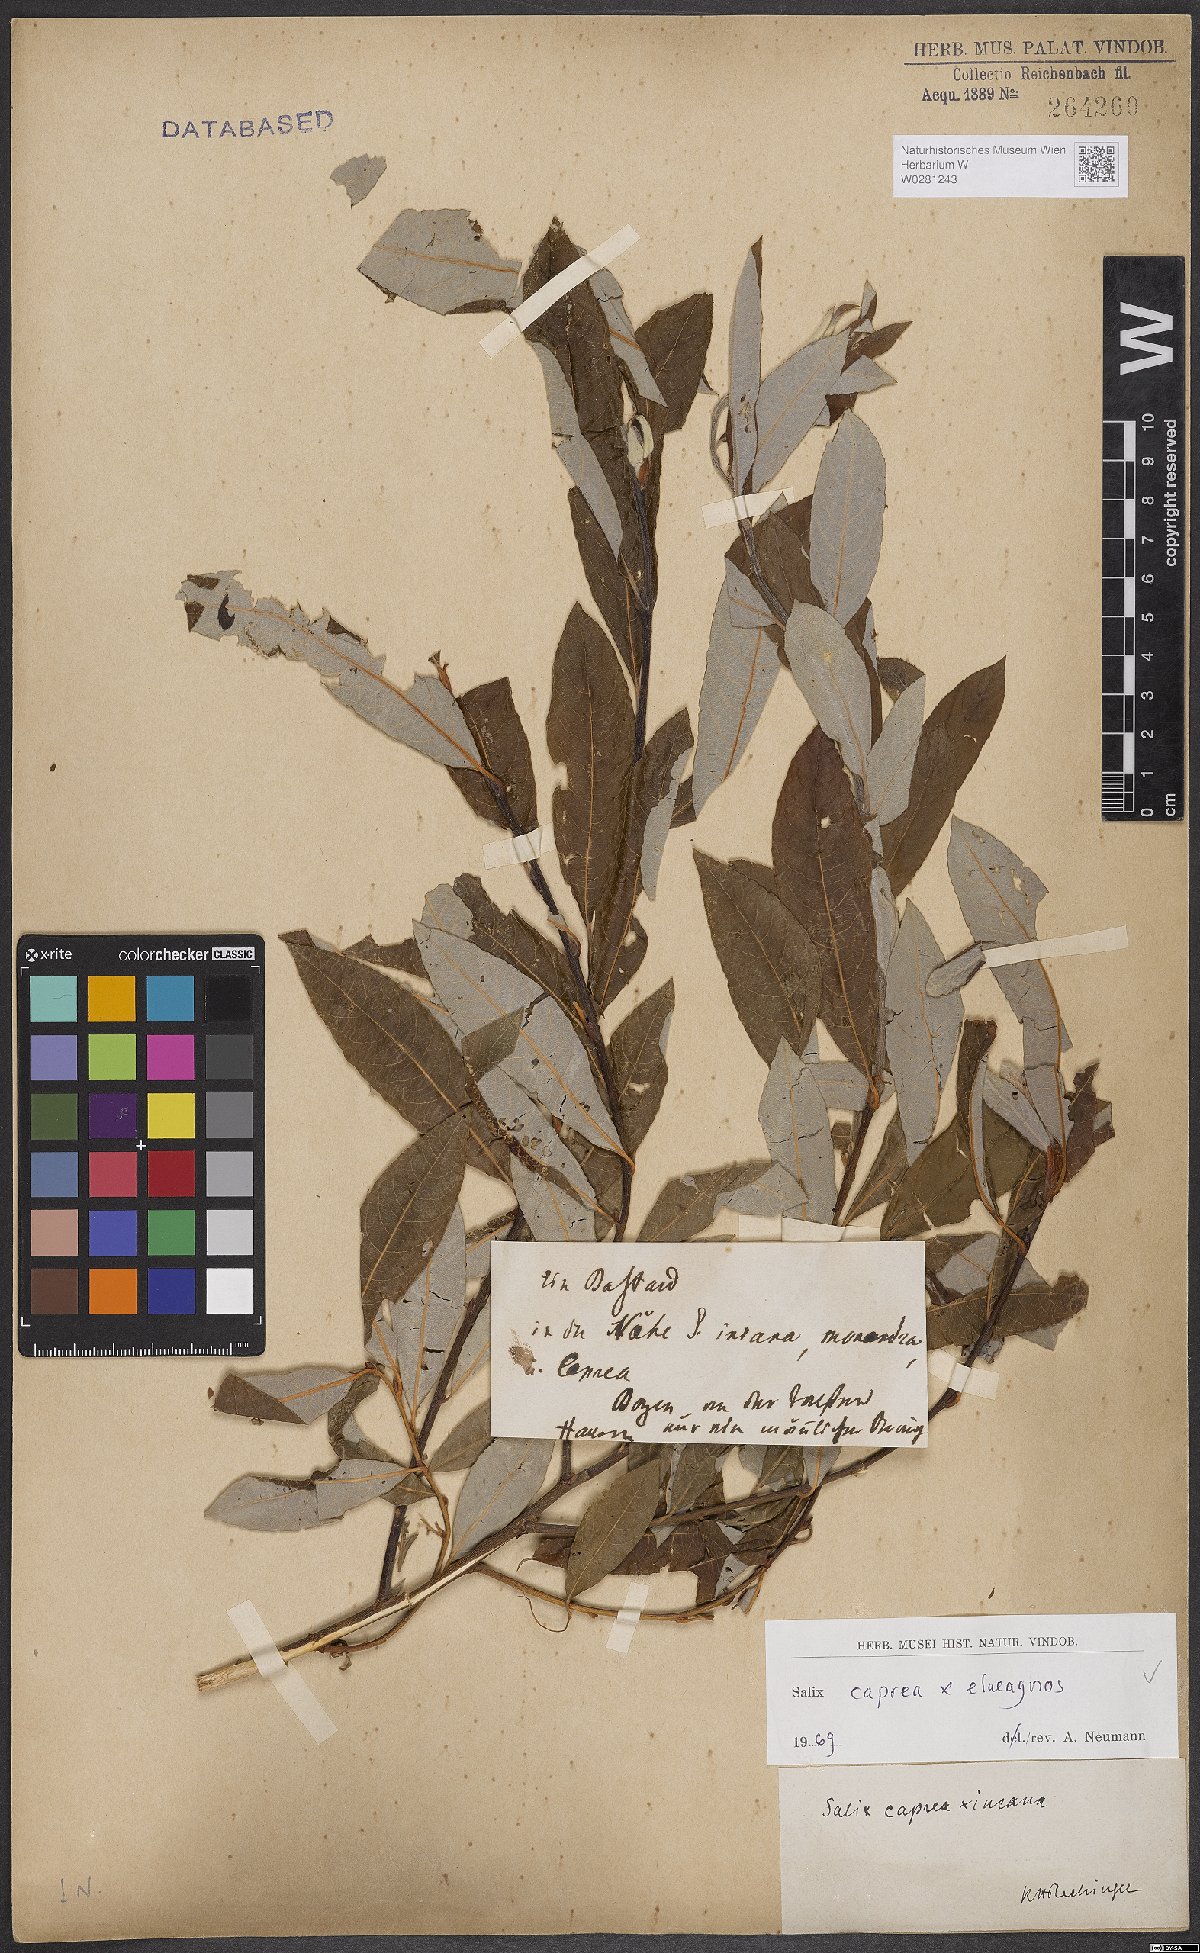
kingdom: Plantae
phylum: Tracheophyta
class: Magnoliopsida
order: Malpighiales
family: Salicaceae
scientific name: Salicaceae
